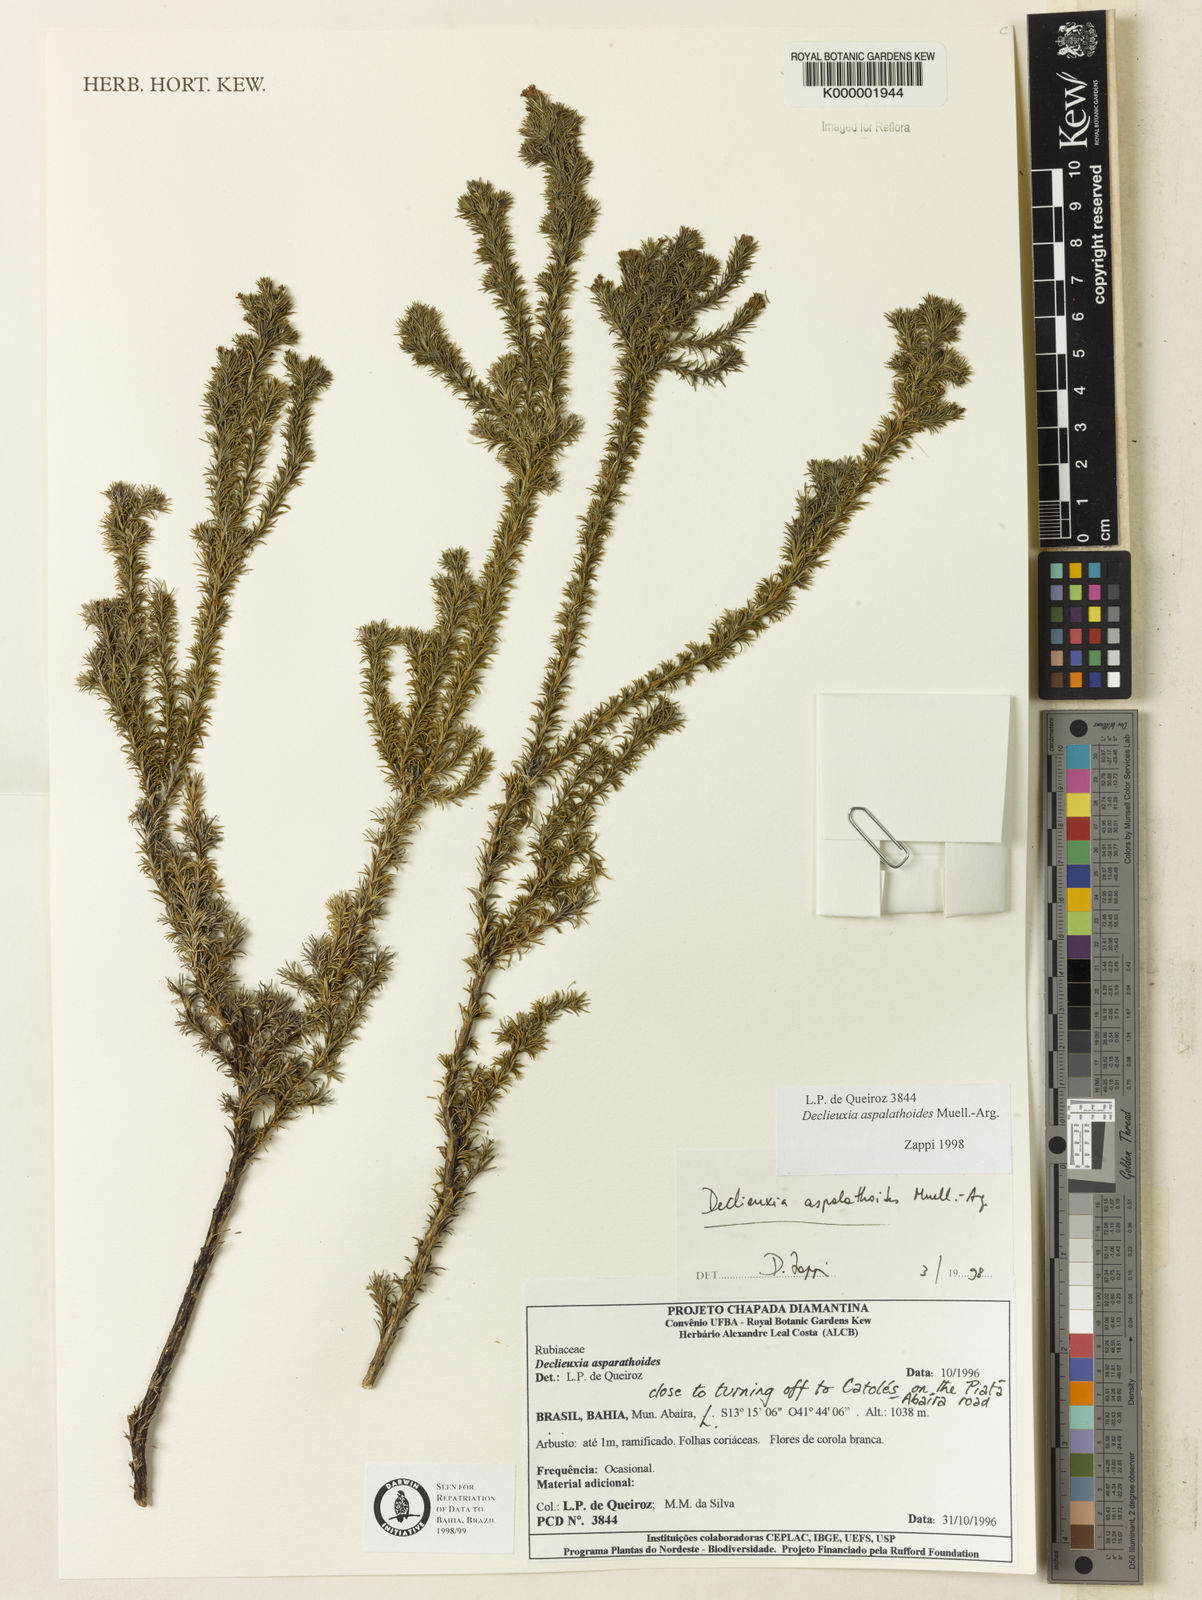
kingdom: Plantae
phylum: Tracheophyta
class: Magnoliopsida
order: Gentianales
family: Rubiaceae
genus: Declieuxia
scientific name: Declieuxia aspalathoides
